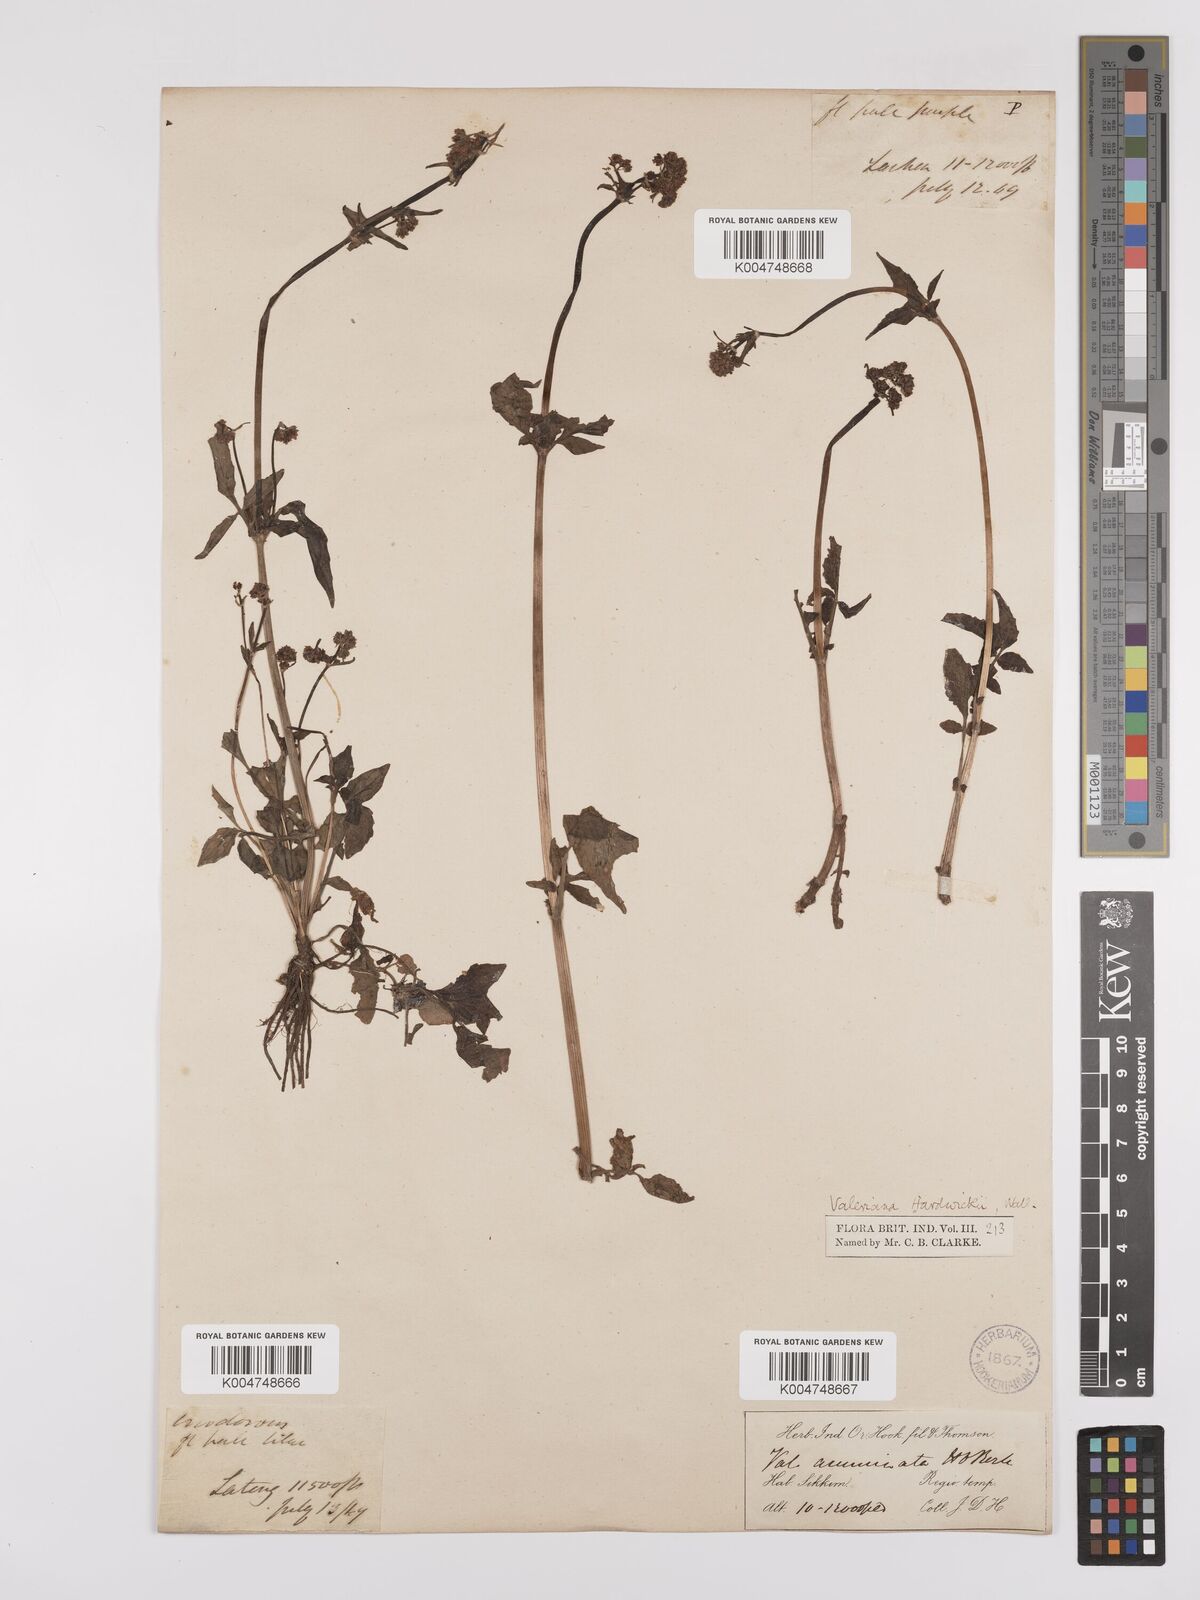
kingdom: Plantae
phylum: Tracheophyta
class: Magnoliopsida
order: Dipsacales
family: Caprifoliaceae
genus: Valeriana
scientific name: Valeriana hardwickei
